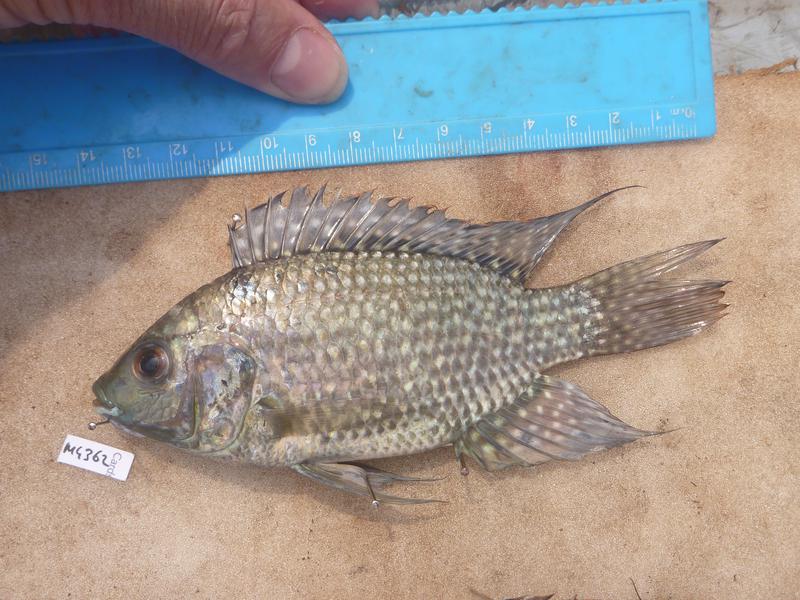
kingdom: Animalia
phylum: Chordata
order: Perciformes
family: Cichlidae
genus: Oreochromis
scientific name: Oreochromis leucostictus
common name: Blue spotted tilapia
